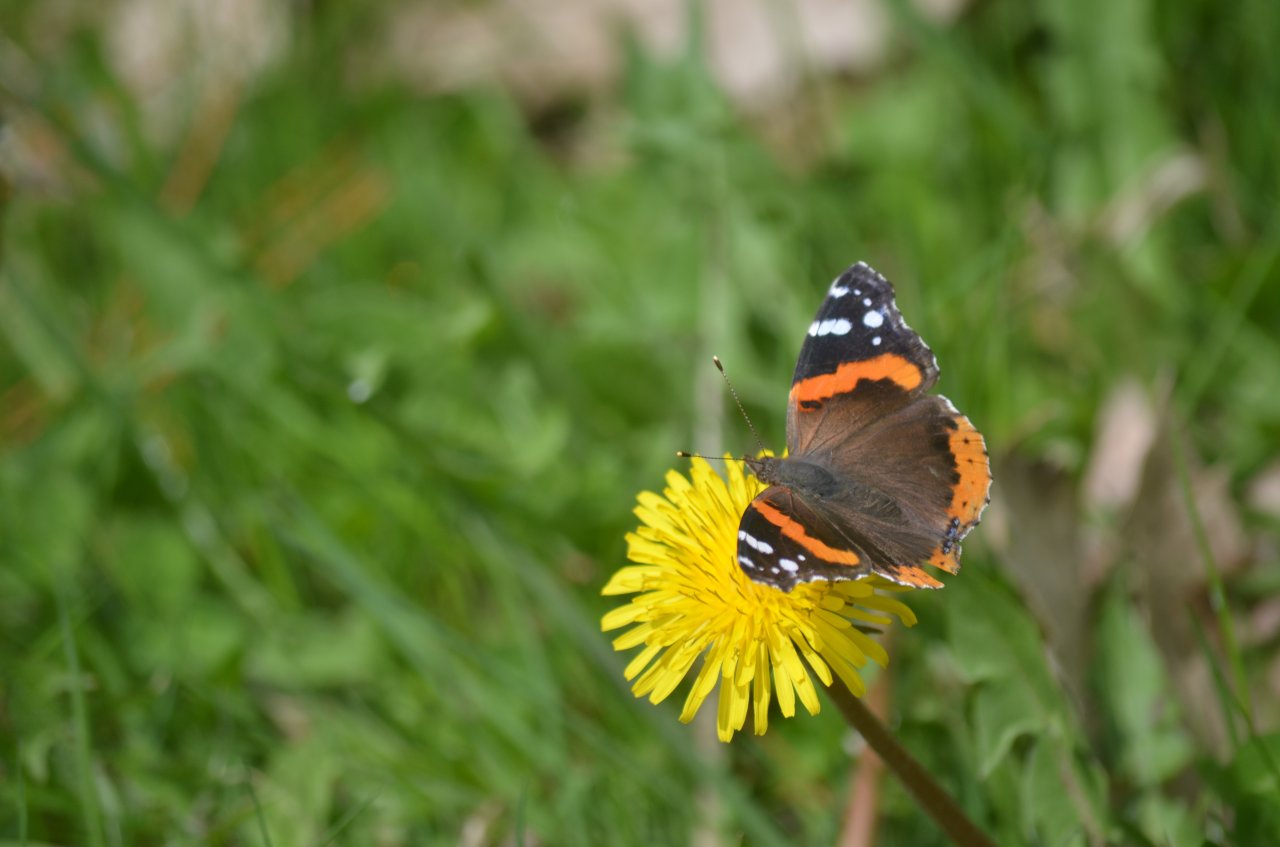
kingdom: Animalia
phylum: Arthropoda
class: Insecta
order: Lepidoptera
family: Nymphalidae
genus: Vanessa
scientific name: Vanessa atalanta
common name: Red Admiral
